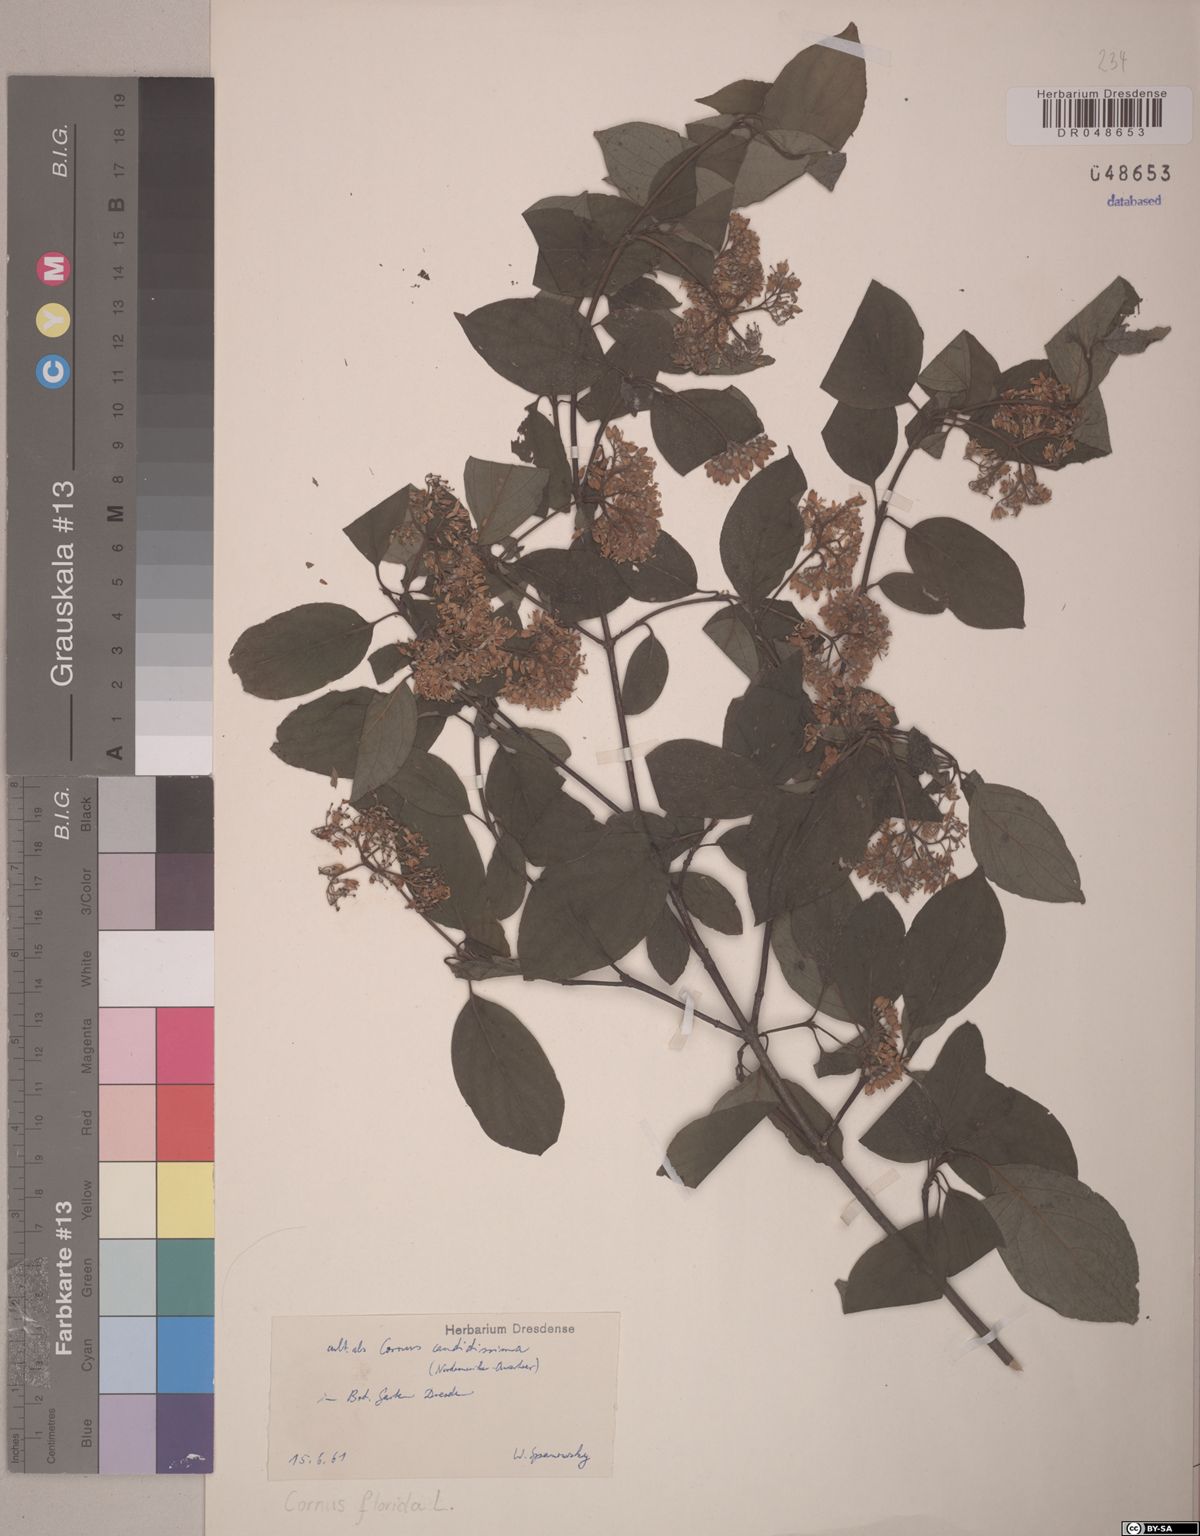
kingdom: Plantae
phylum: Tracheophyta
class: Magnoliopsida
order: Cornales
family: Cornaceae
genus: Cornus
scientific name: Cornus florida
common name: Flowering dogwood
